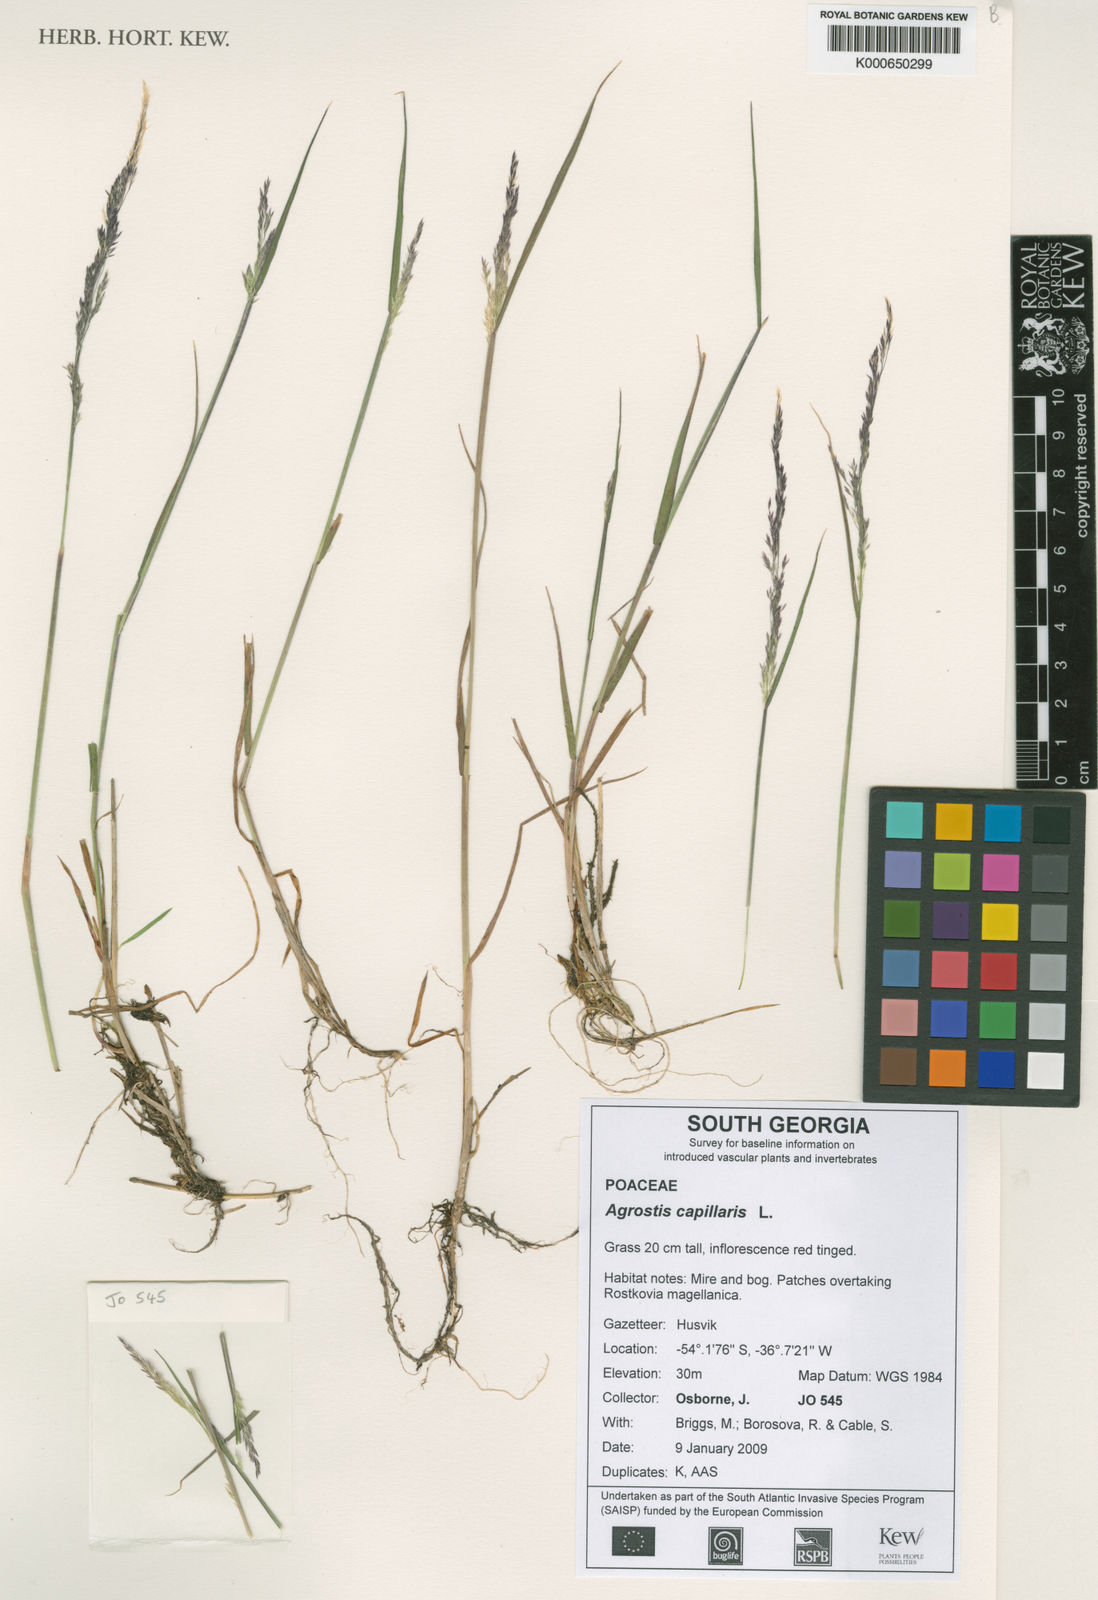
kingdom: Plantae
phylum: Tracheophyta
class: Liliopsida
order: Poales
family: Poaceae
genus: Agrostis
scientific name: Agrostis capillaris
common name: Colonial bentgrass
